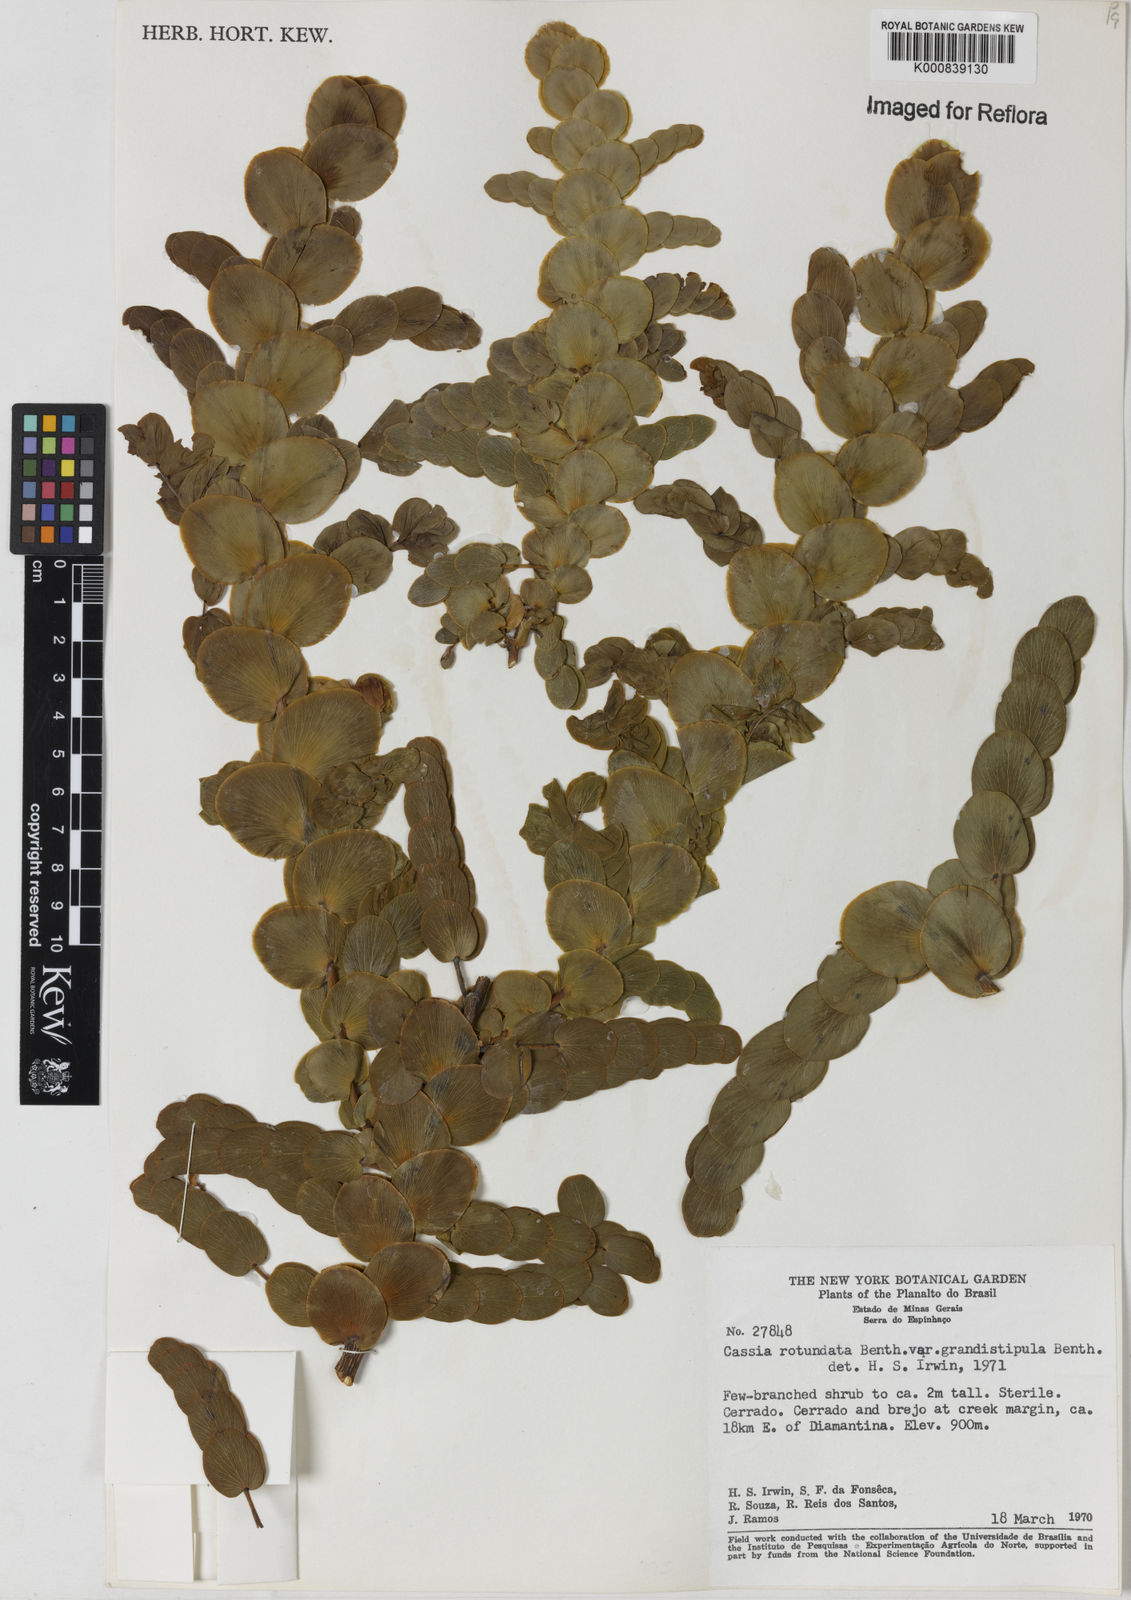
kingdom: Plantae
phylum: Tracheophyta
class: Magnoliopsida
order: Fabales
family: Fabaceae
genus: Chamaecrista
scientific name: Chamaecrista
